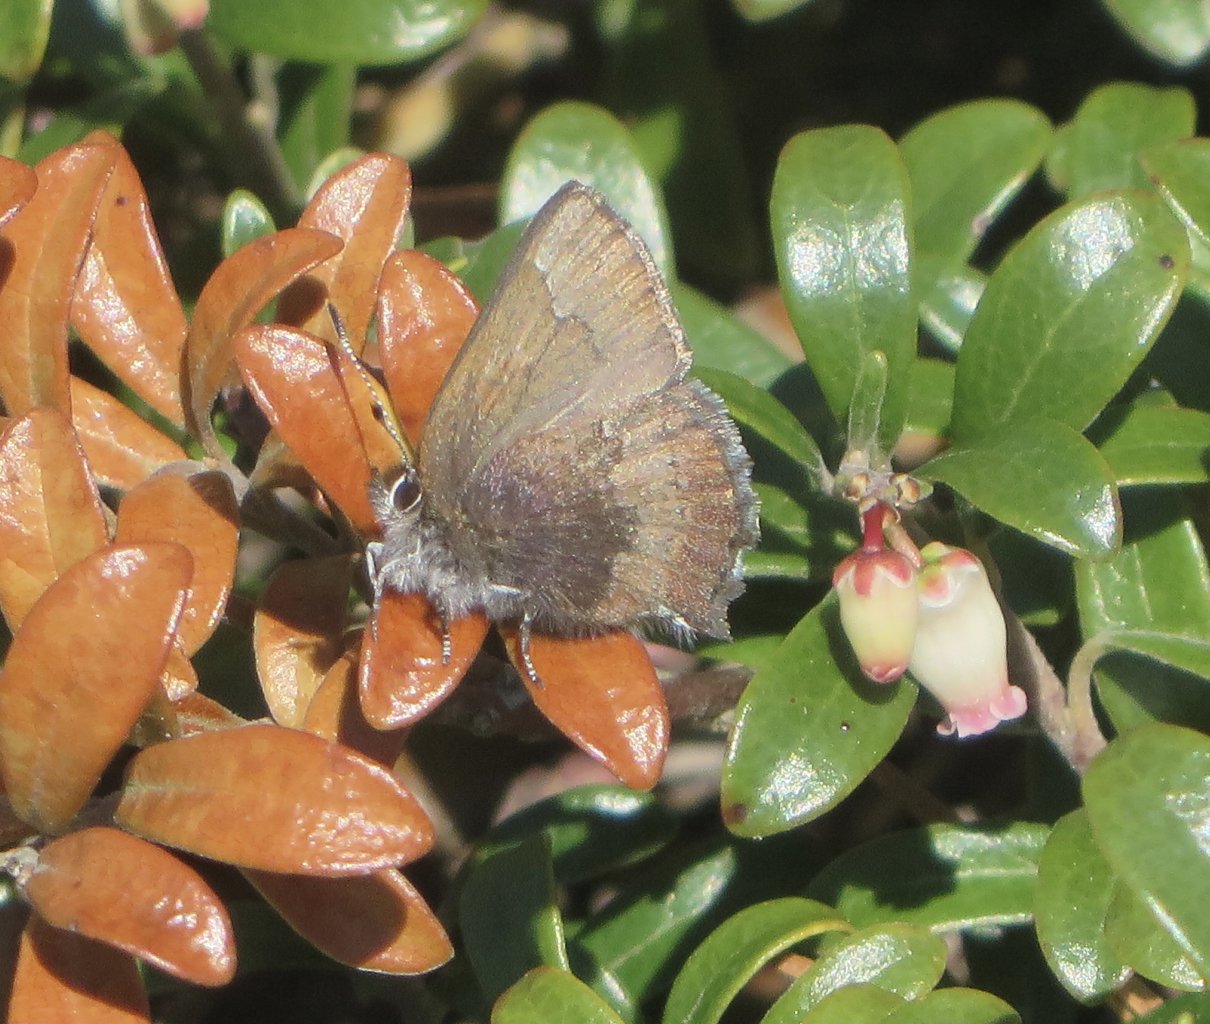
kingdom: Animalia
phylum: Arthropoda
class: Insecta
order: Lepidoptera
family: Lycaenidae
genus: Incisalia
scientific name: Incisalia irioides
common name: Brown Elfin
